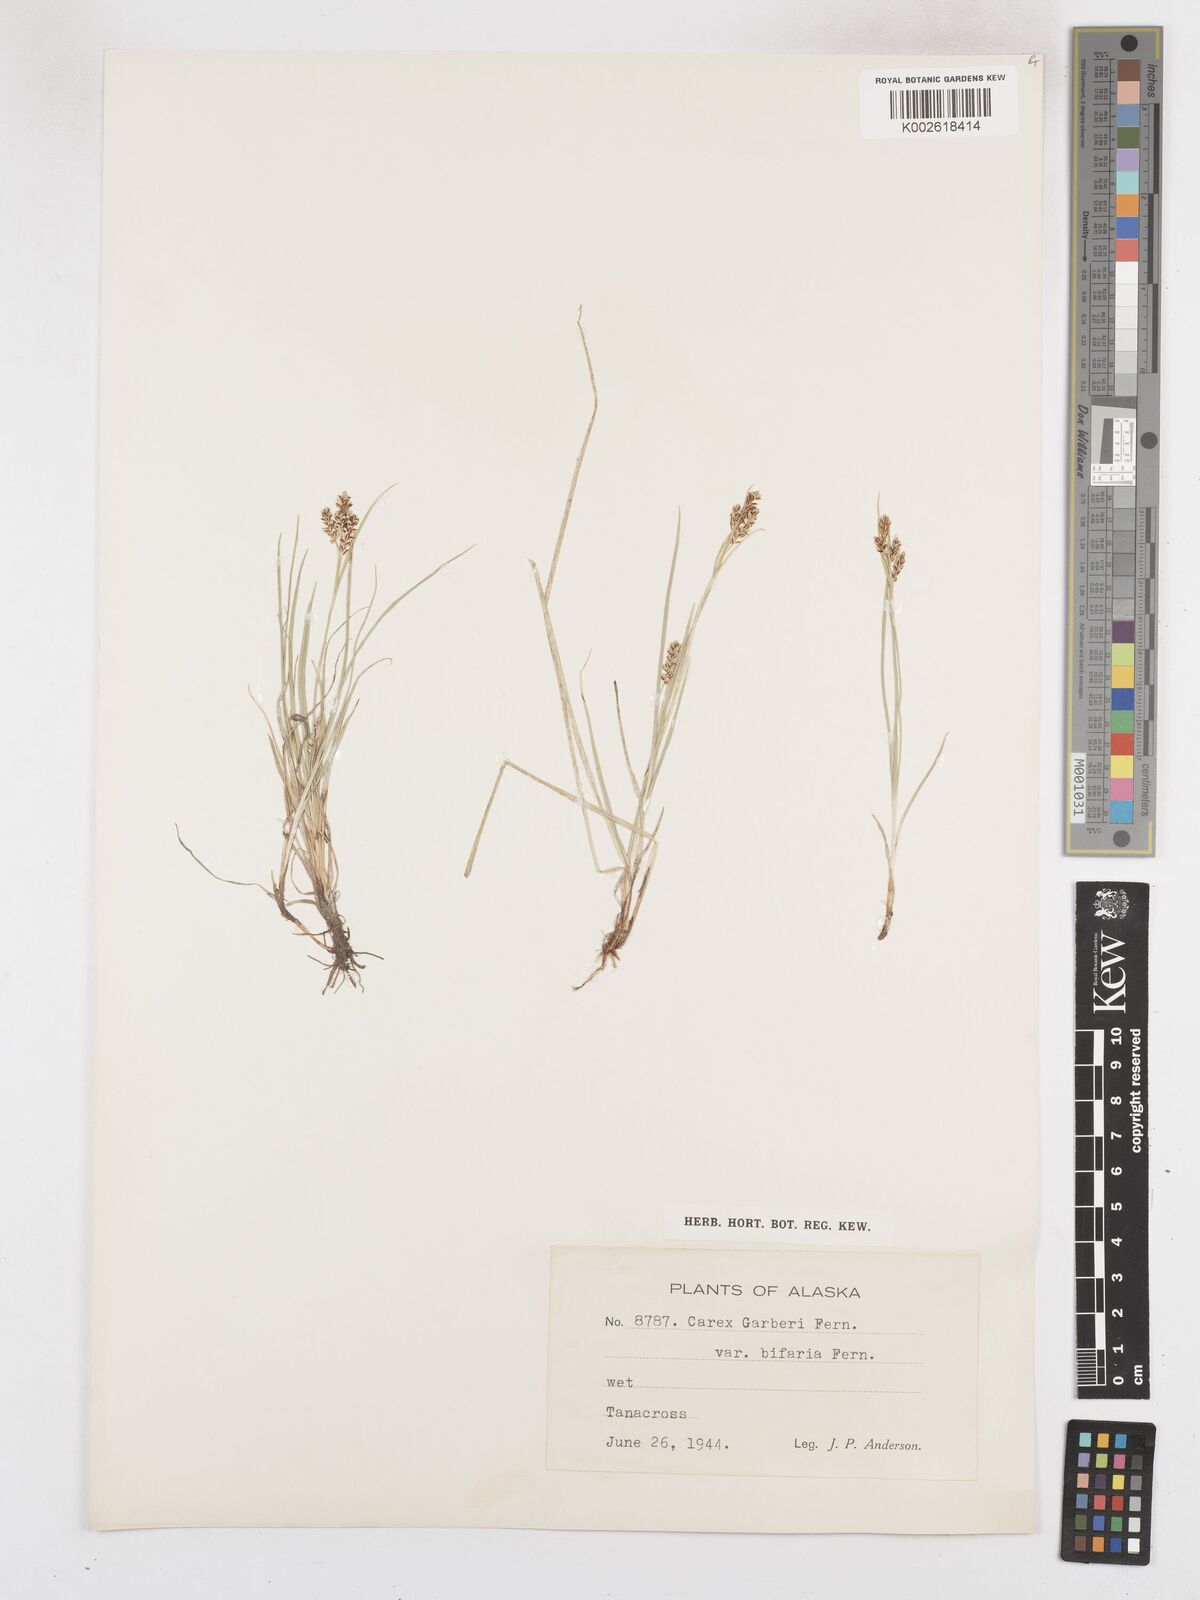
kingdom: Plantae
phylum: Tracheophyta
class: Liliopsida
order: Poales
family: Cyperaceae
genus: Carex
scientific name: Carex garberi
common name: Elk sedge
